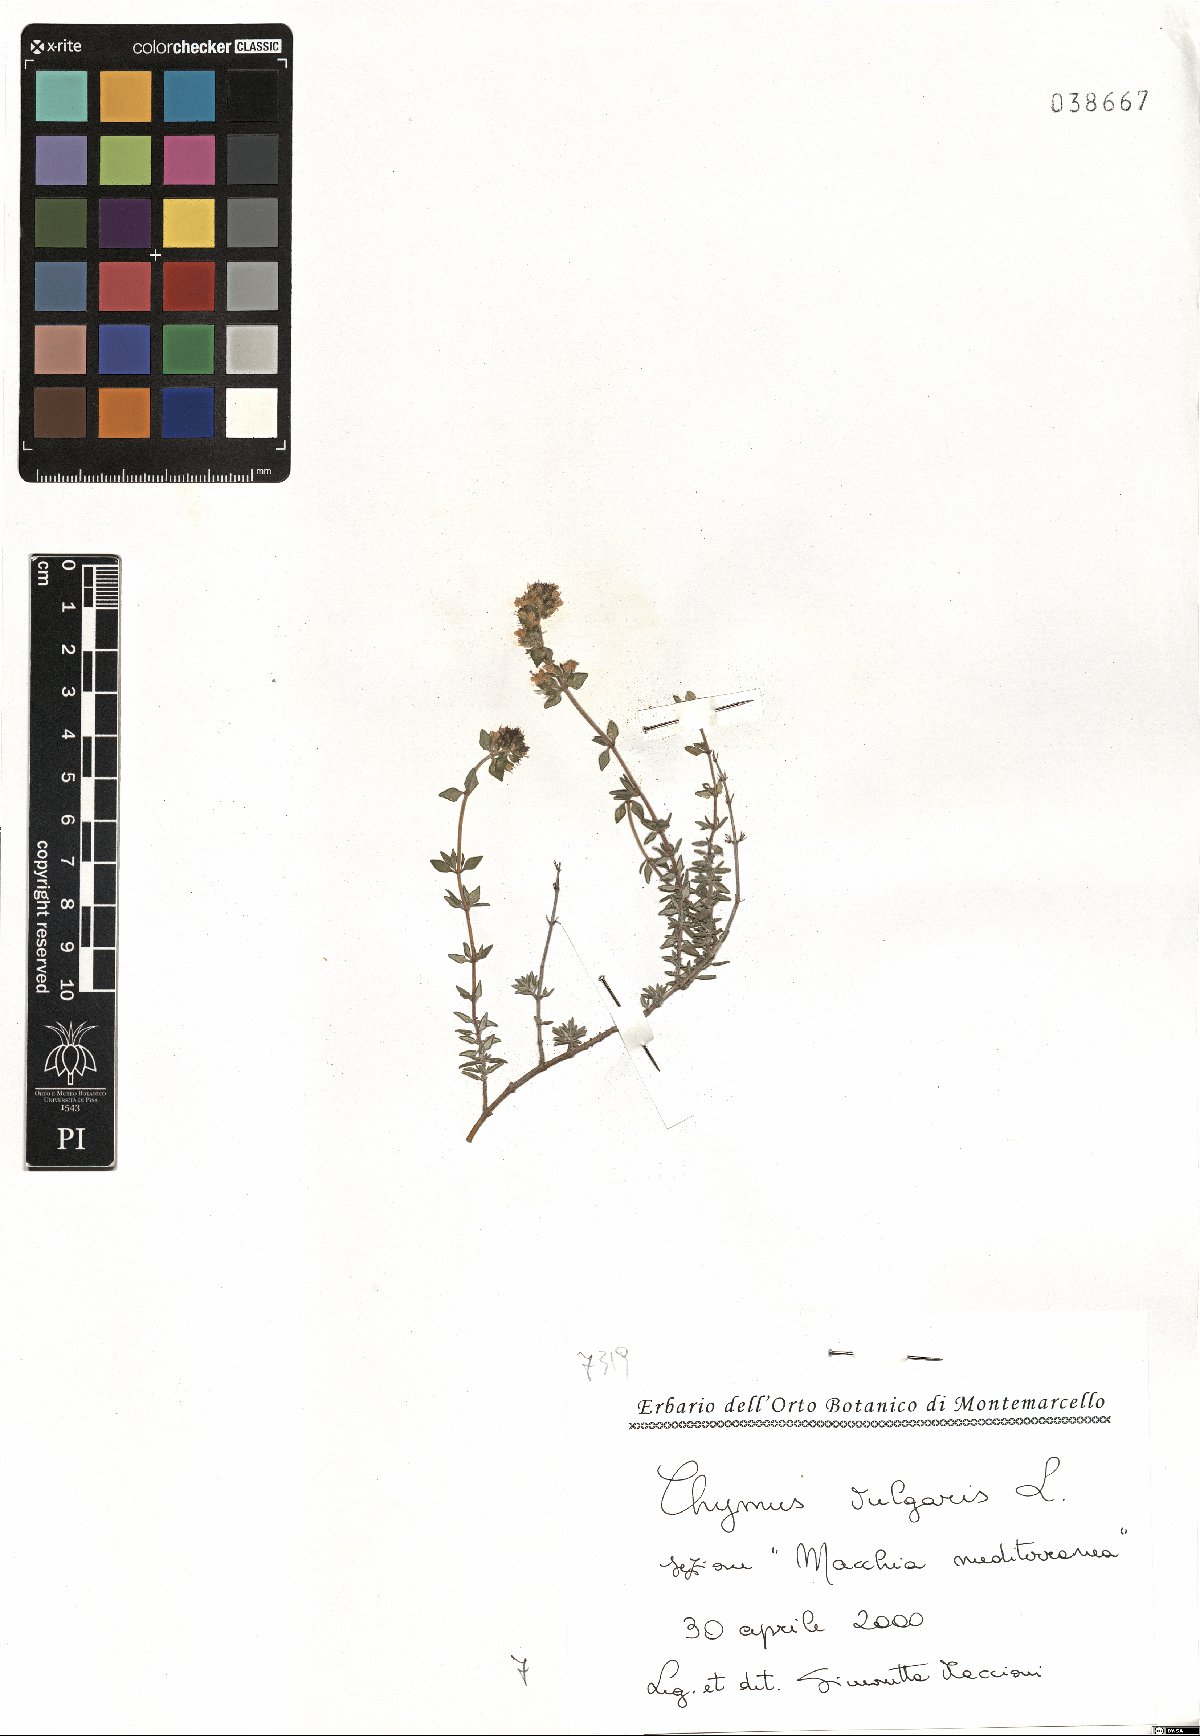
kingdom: Plantae
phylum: Tracheophyta
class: Magnoliopsida
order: Lamiales
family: Lamiaceae
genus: Thymus
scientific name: Thymus vulgaris
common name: Garden thyme
